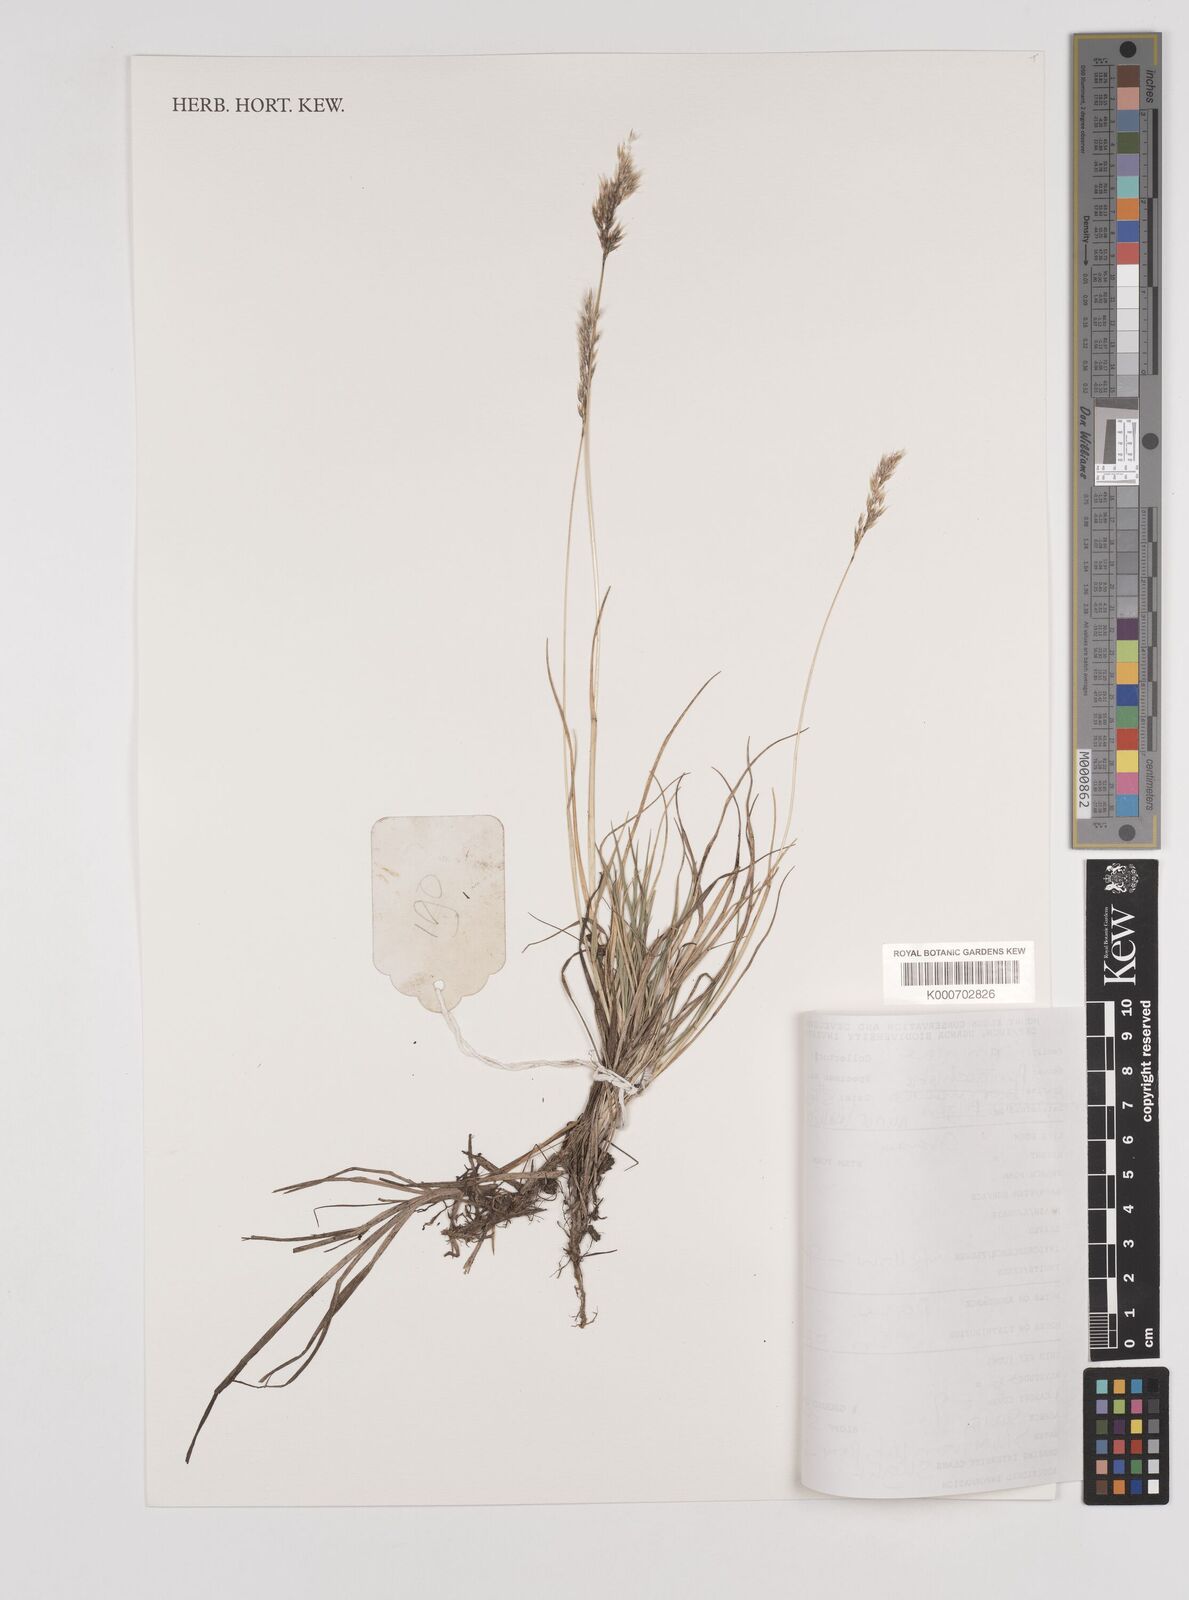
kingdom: Plantae
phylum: Tracheophyta
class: Liliopsida
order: Poales
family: Poaceae
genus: Pentameris
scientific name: Pentameris minor
